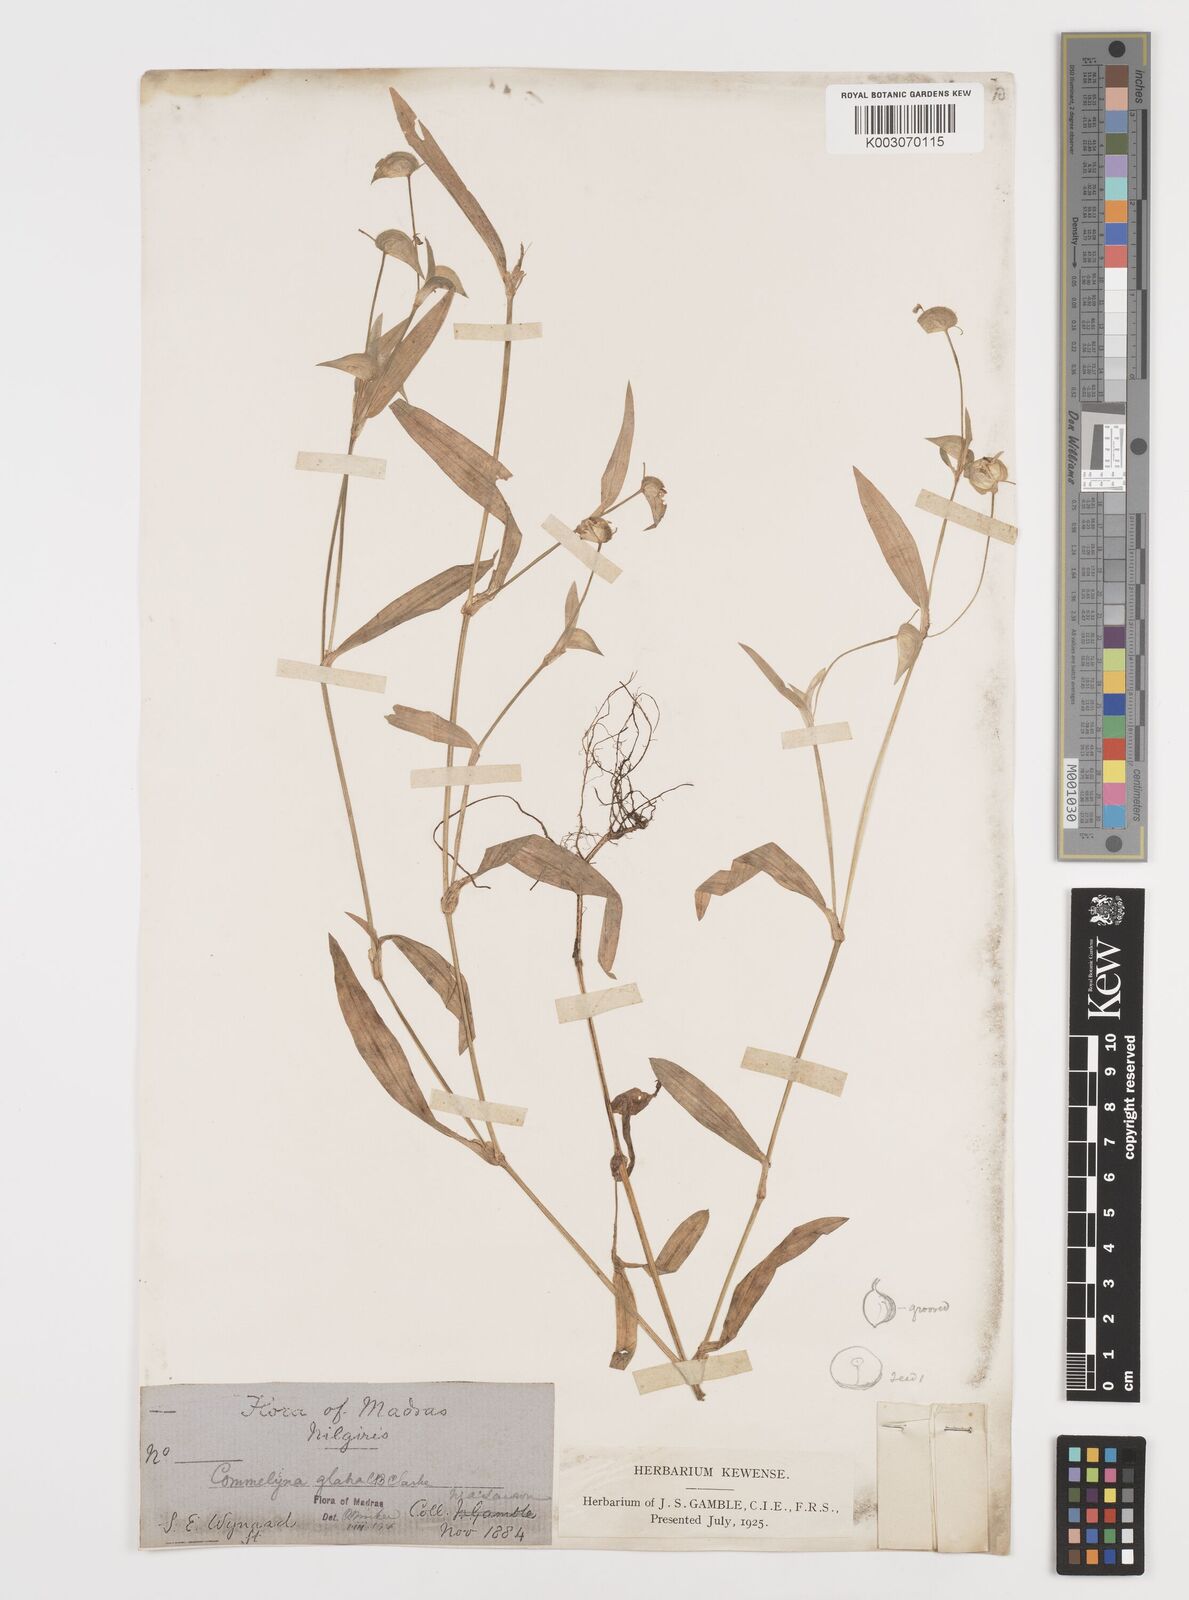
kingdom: Plantae
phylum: Tracheophyta
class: Liliopsida
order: Commelinales
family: Commelinaceae
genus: Commelina
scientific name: Commelina wightii
